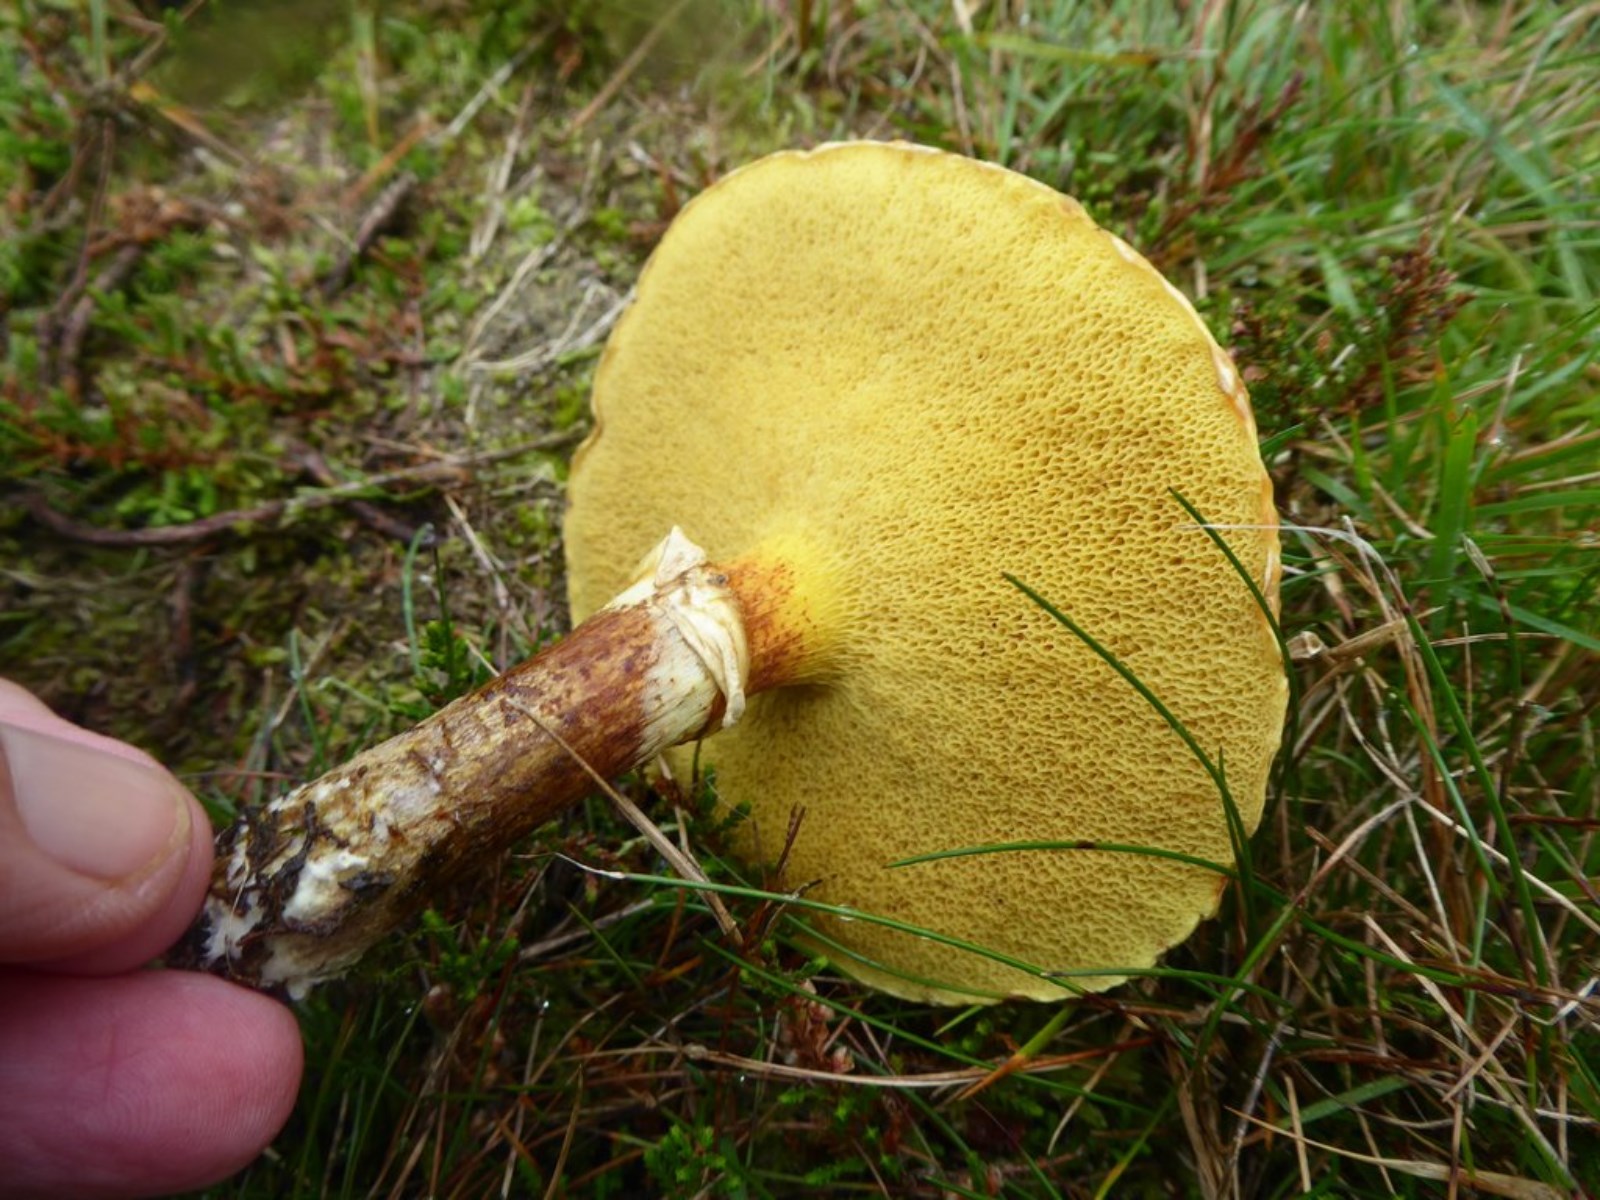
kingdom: Fungi
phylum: Basidiomycota
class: Agaricomycetes
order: Boletales
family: Suillaceae
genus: Suillus
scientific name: Suillus grevillei
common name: lærke-slimrørhat
